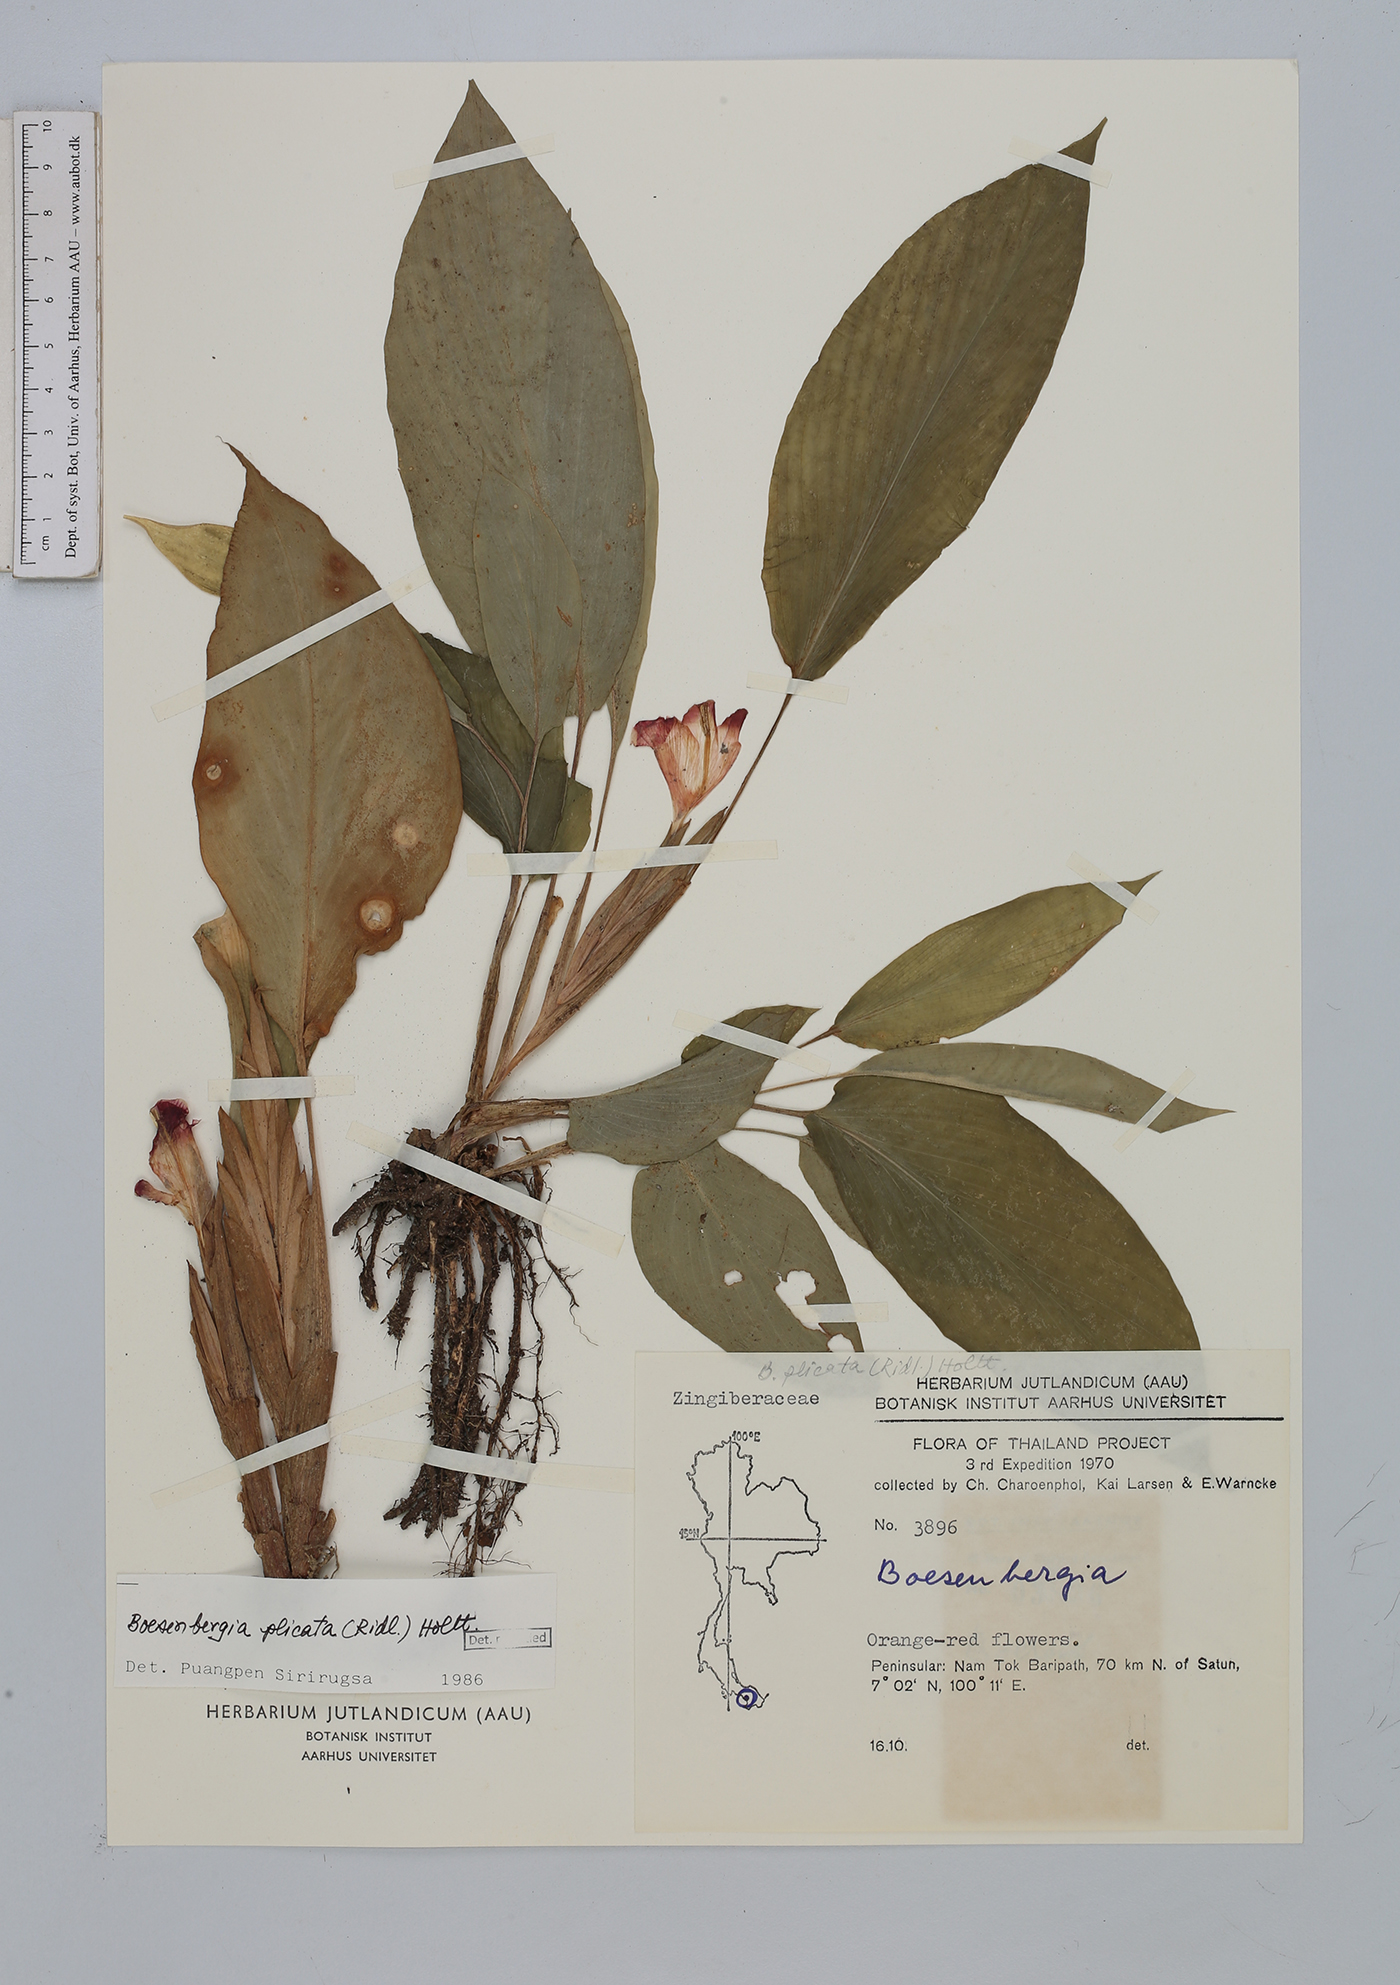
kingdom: Plantae
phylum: Tracheophyta
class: Liliopsida
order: Zingiberales
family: Zingiberaceae
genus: Boesenbergia
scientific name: Boesenbergia plicata
